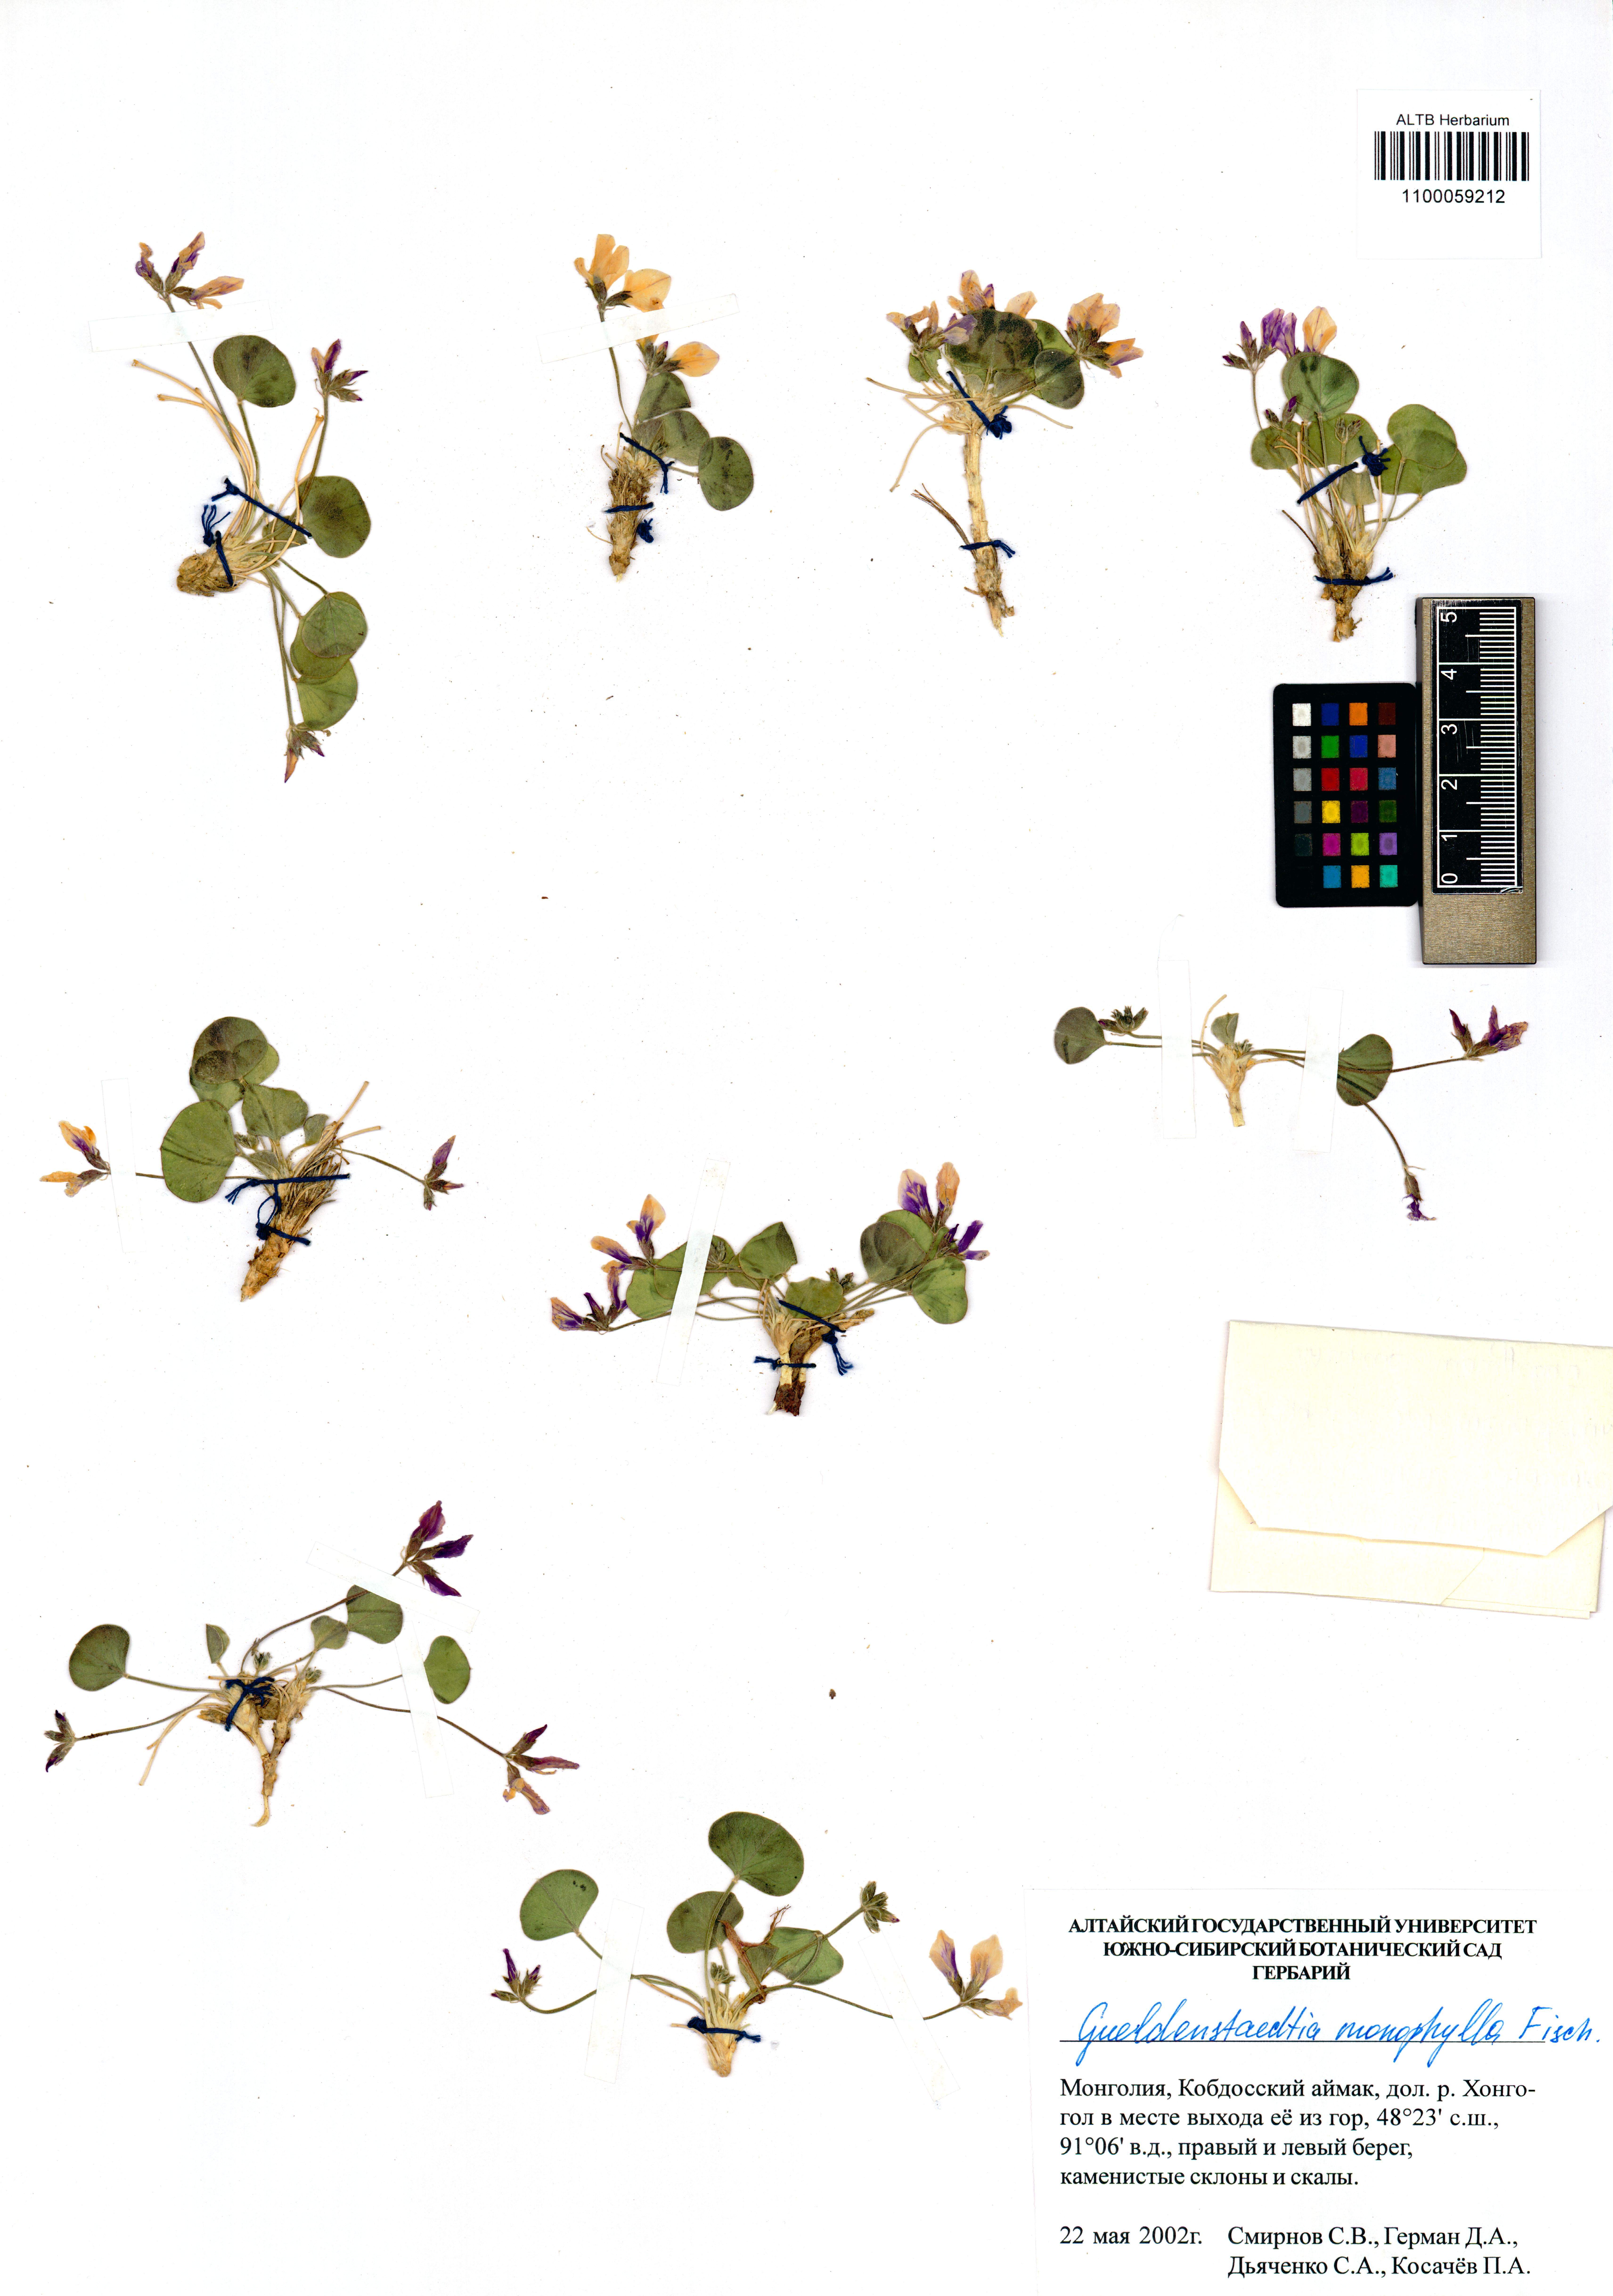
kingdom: Plantae
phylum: Tracheophyta
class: Magnoliopsida
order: Fabales
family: Fabaceae
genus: Gueldenstaedtia
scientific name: Gueldenstaedtia monophylla
